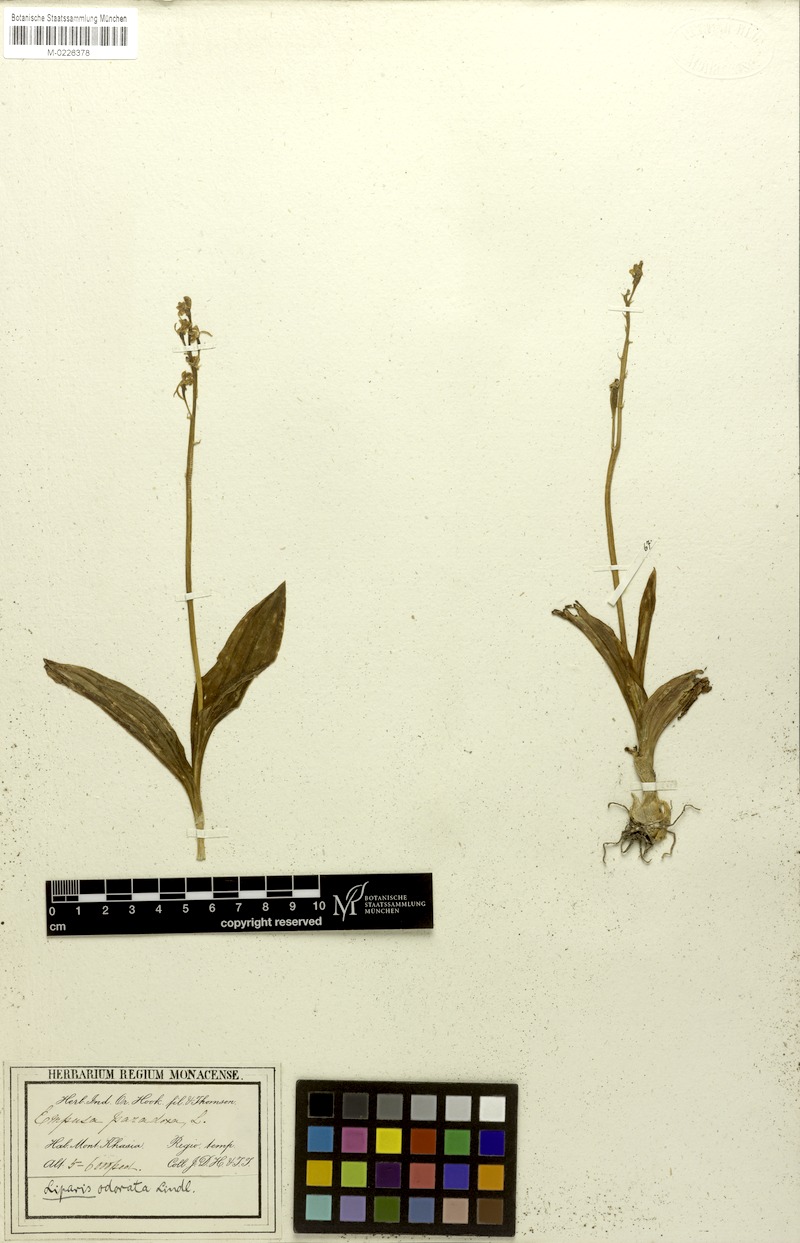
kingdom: Plantae
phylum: Tracheophyta
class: Liliopsida
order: Asparagales
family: Orchidaceae
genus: Liparis
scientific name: Liparis odorata
